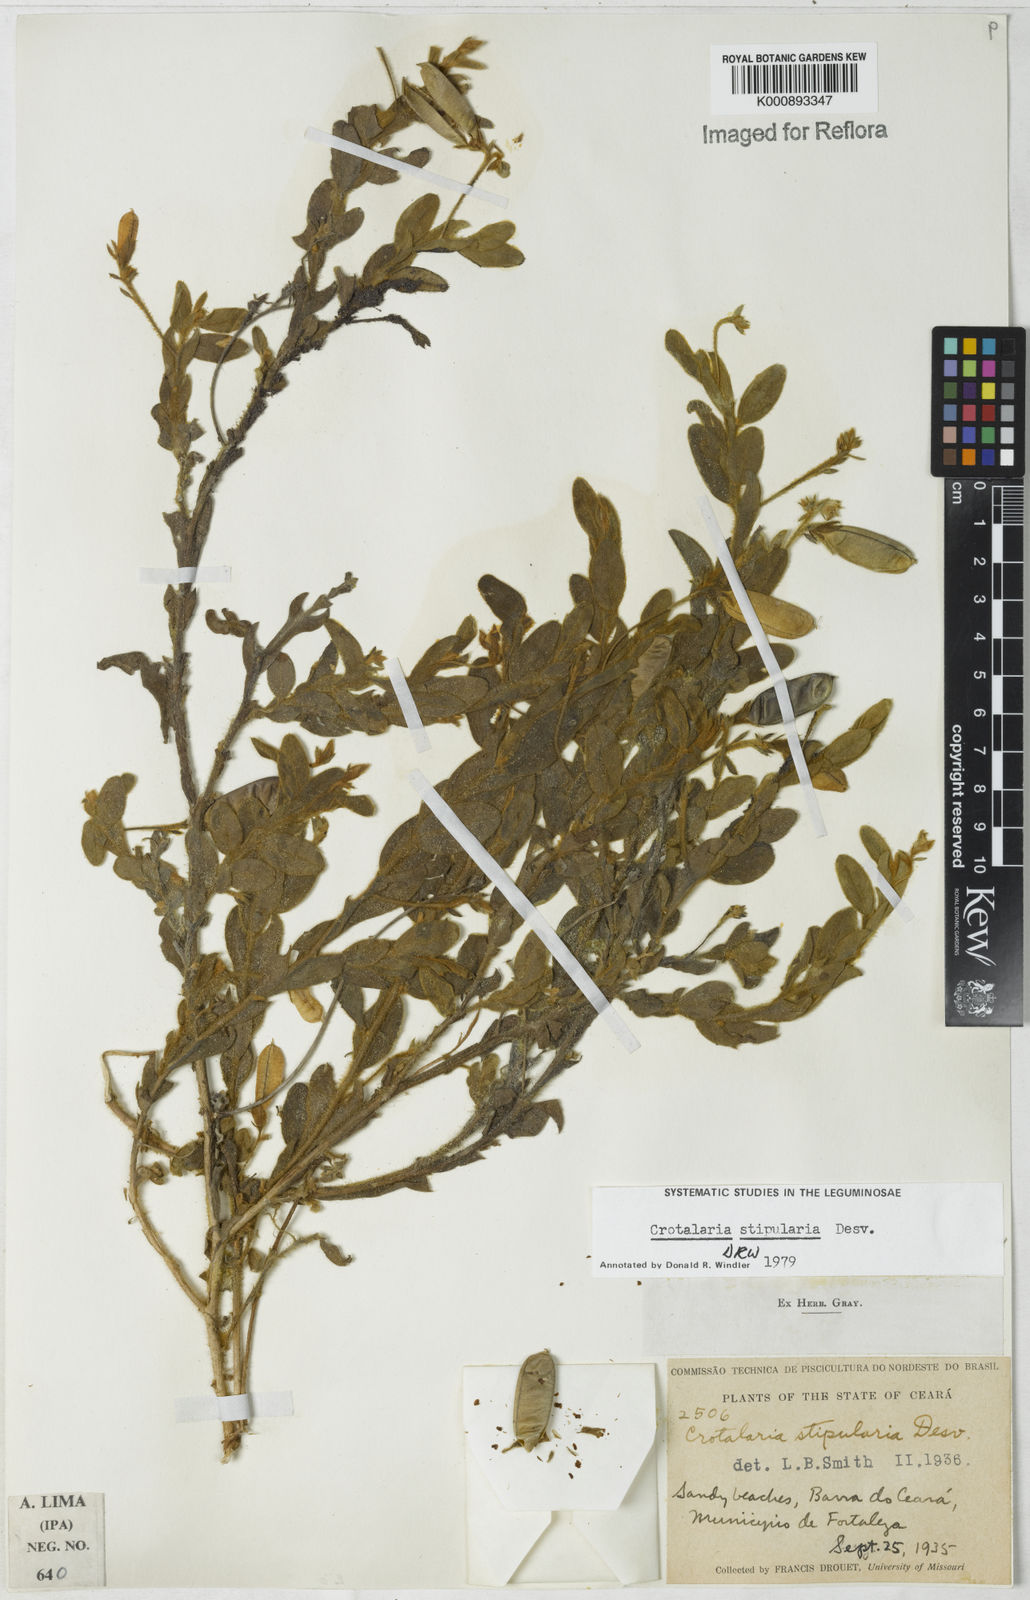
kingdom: Plantae
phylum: Tracheophyta
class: Magnoliopsida
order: Fabales
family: Fabaceae
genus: Crotalaria
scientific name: Crotalaria stipularia
